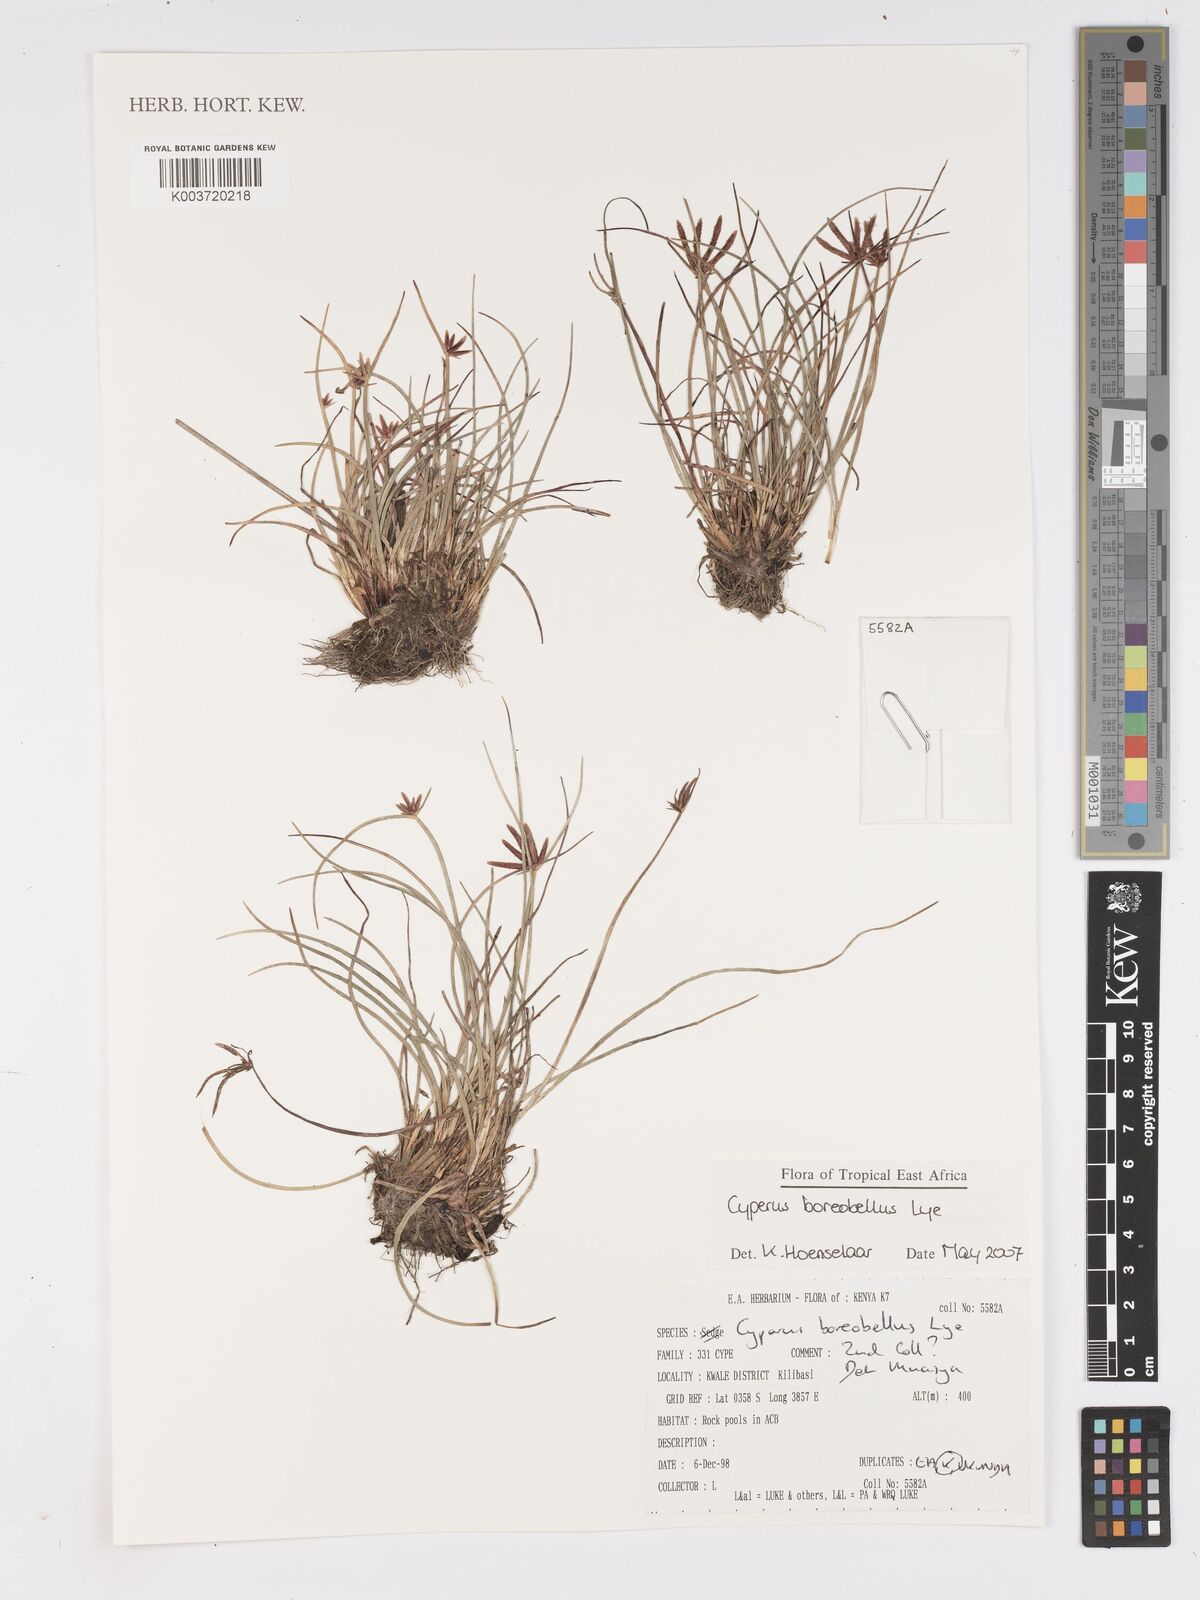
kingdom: Plantae
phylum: Tracheophyta
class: Liliopsida
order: Poales
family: Cyperaceae
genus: Cyperus
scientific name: Cyperus boreobellus
